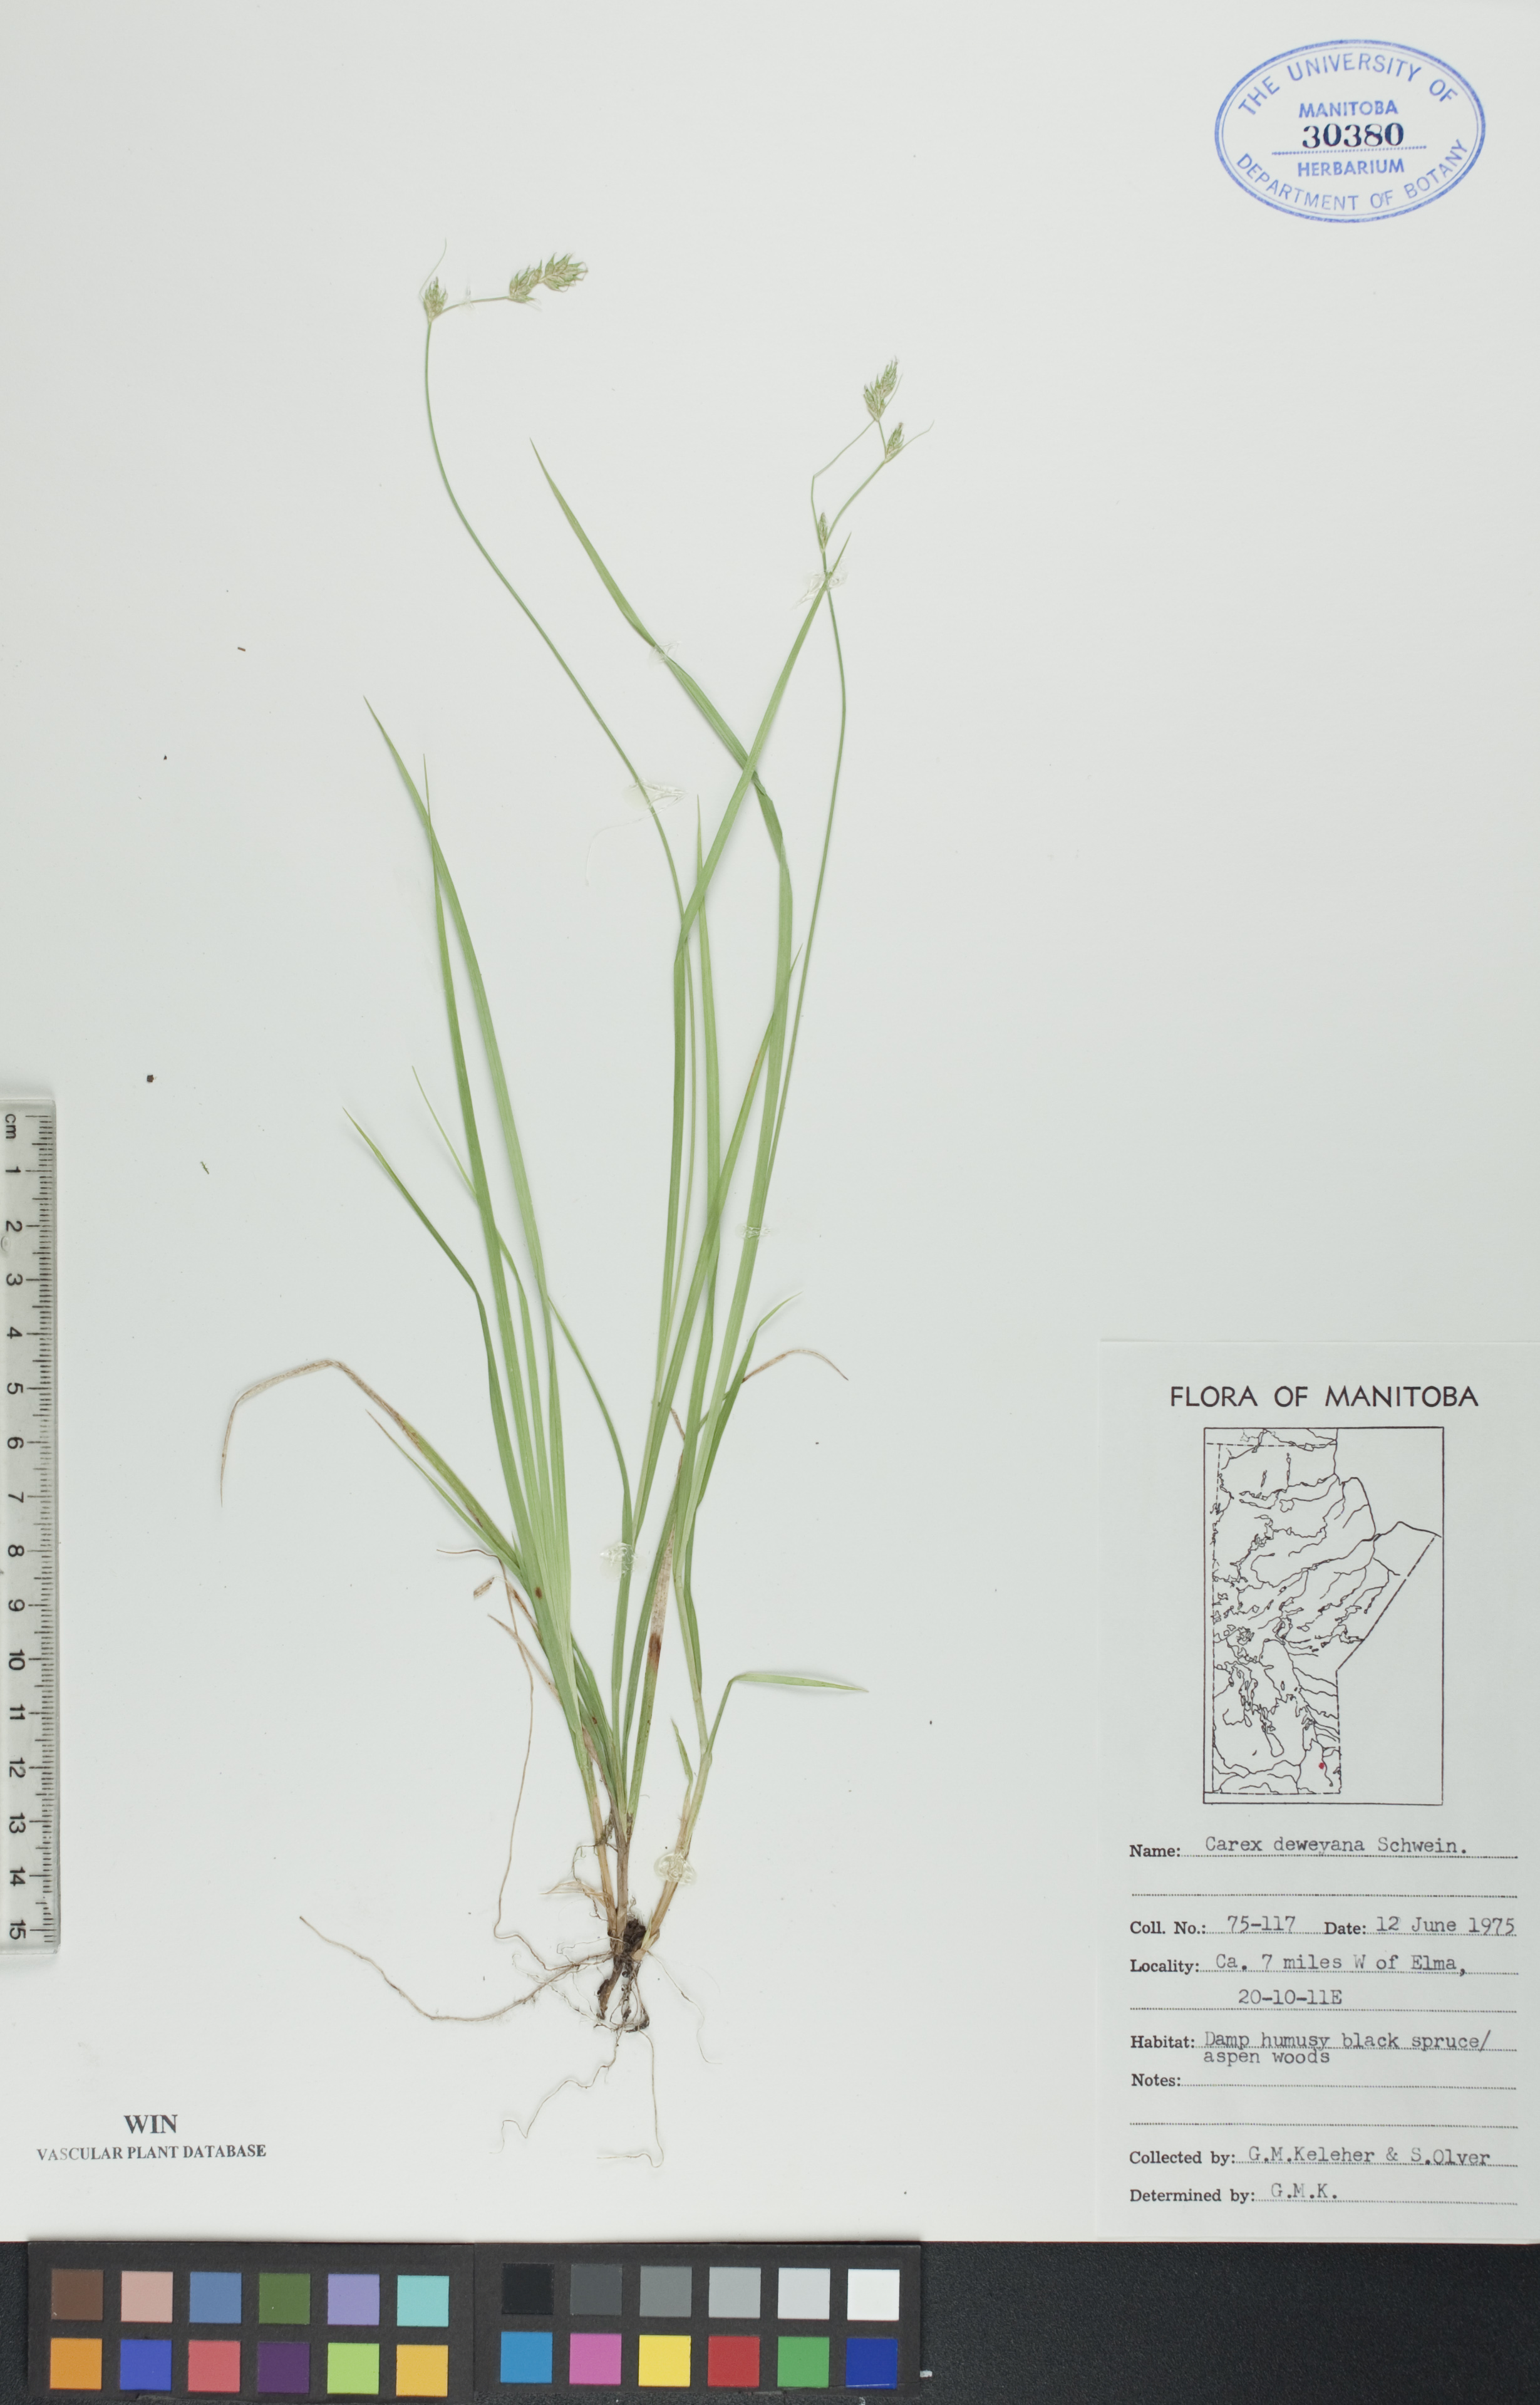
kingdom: Plantae
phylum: Tracheophyta
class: Liliopsida
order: Poales
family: Cyperaceae
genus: Carex
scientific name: Carex deweyana
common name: Dewey's sedge
